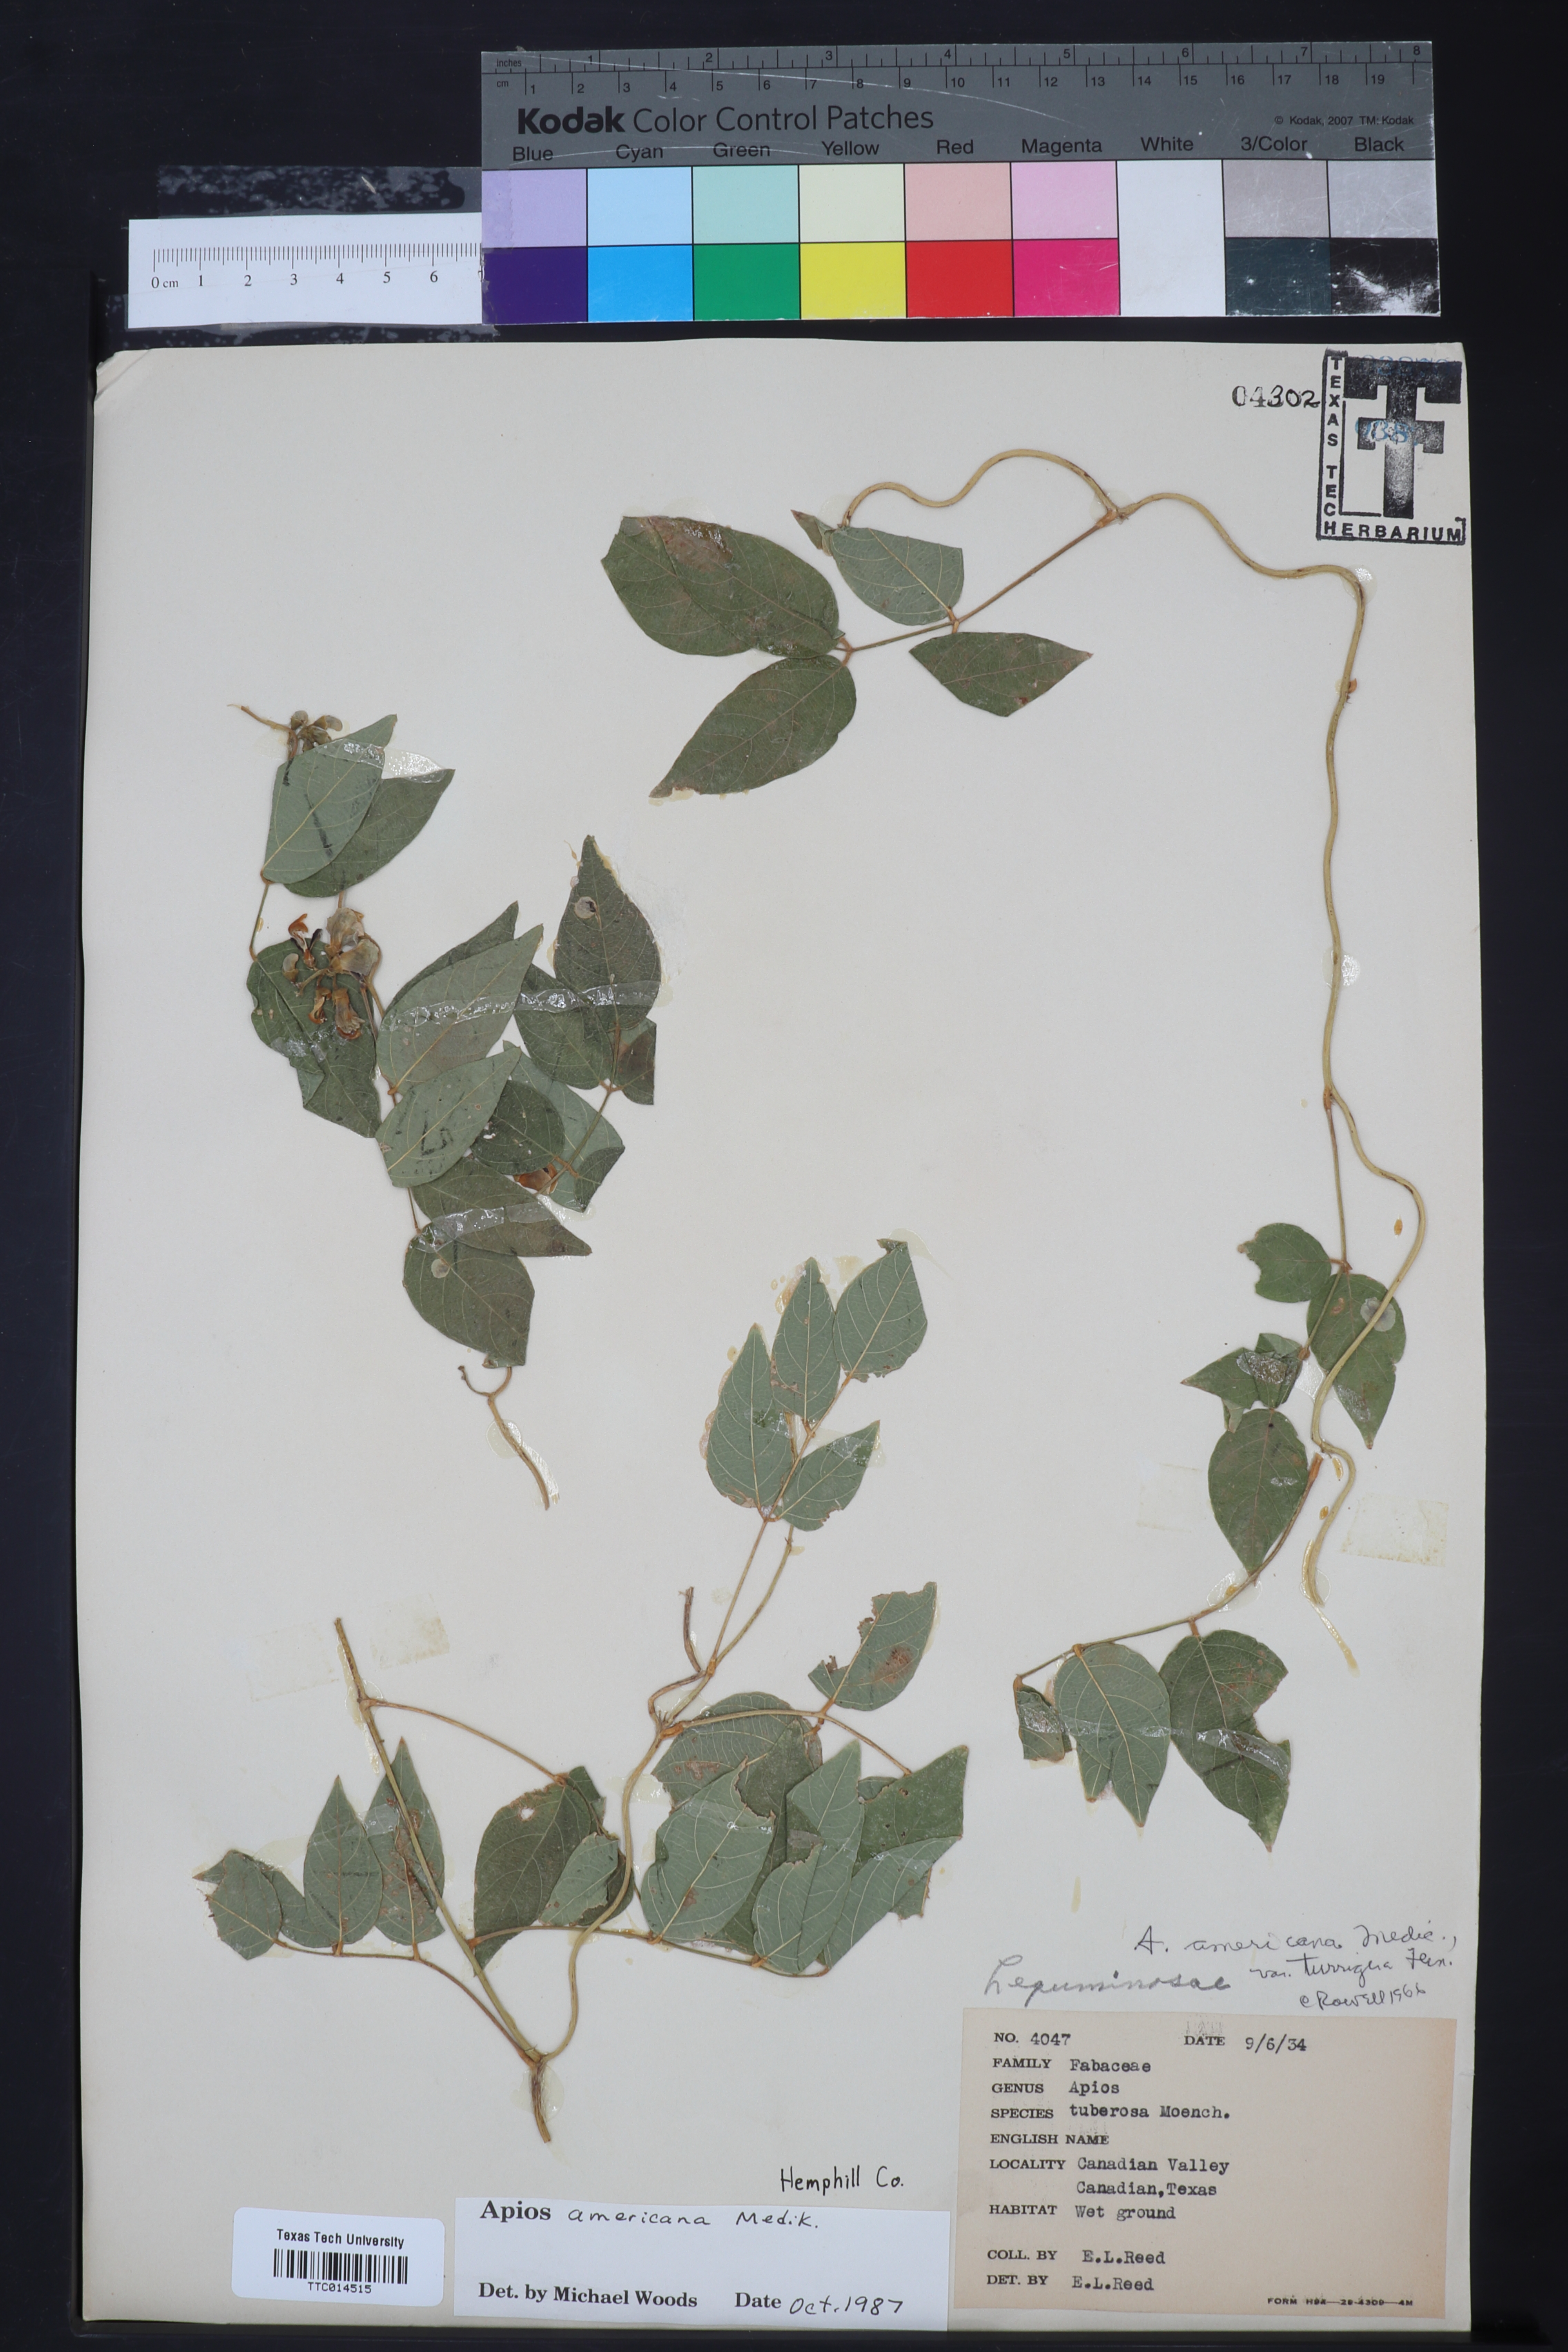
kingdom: Plantae
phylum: Tracheophyta
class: Magnoliopsida
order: Fabales
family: Fabaceae
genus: Apios
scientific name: Apios americana
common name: American potato-bean
